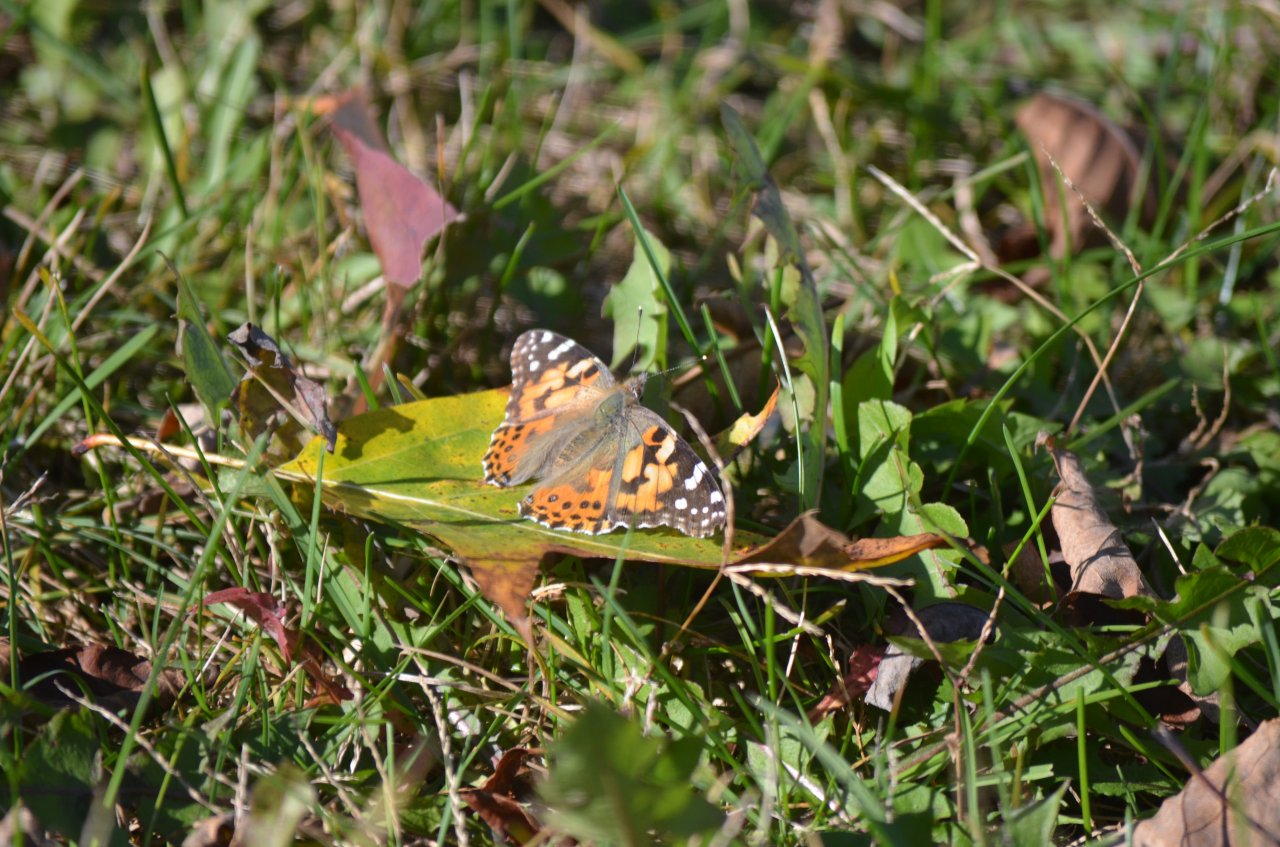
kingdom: Animalia
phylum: Arthropoda
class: Insecta
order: Lepidoptera
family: Nymphalidae
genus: Vanessa
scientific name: Vanessa cardui
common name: Painted Lady
